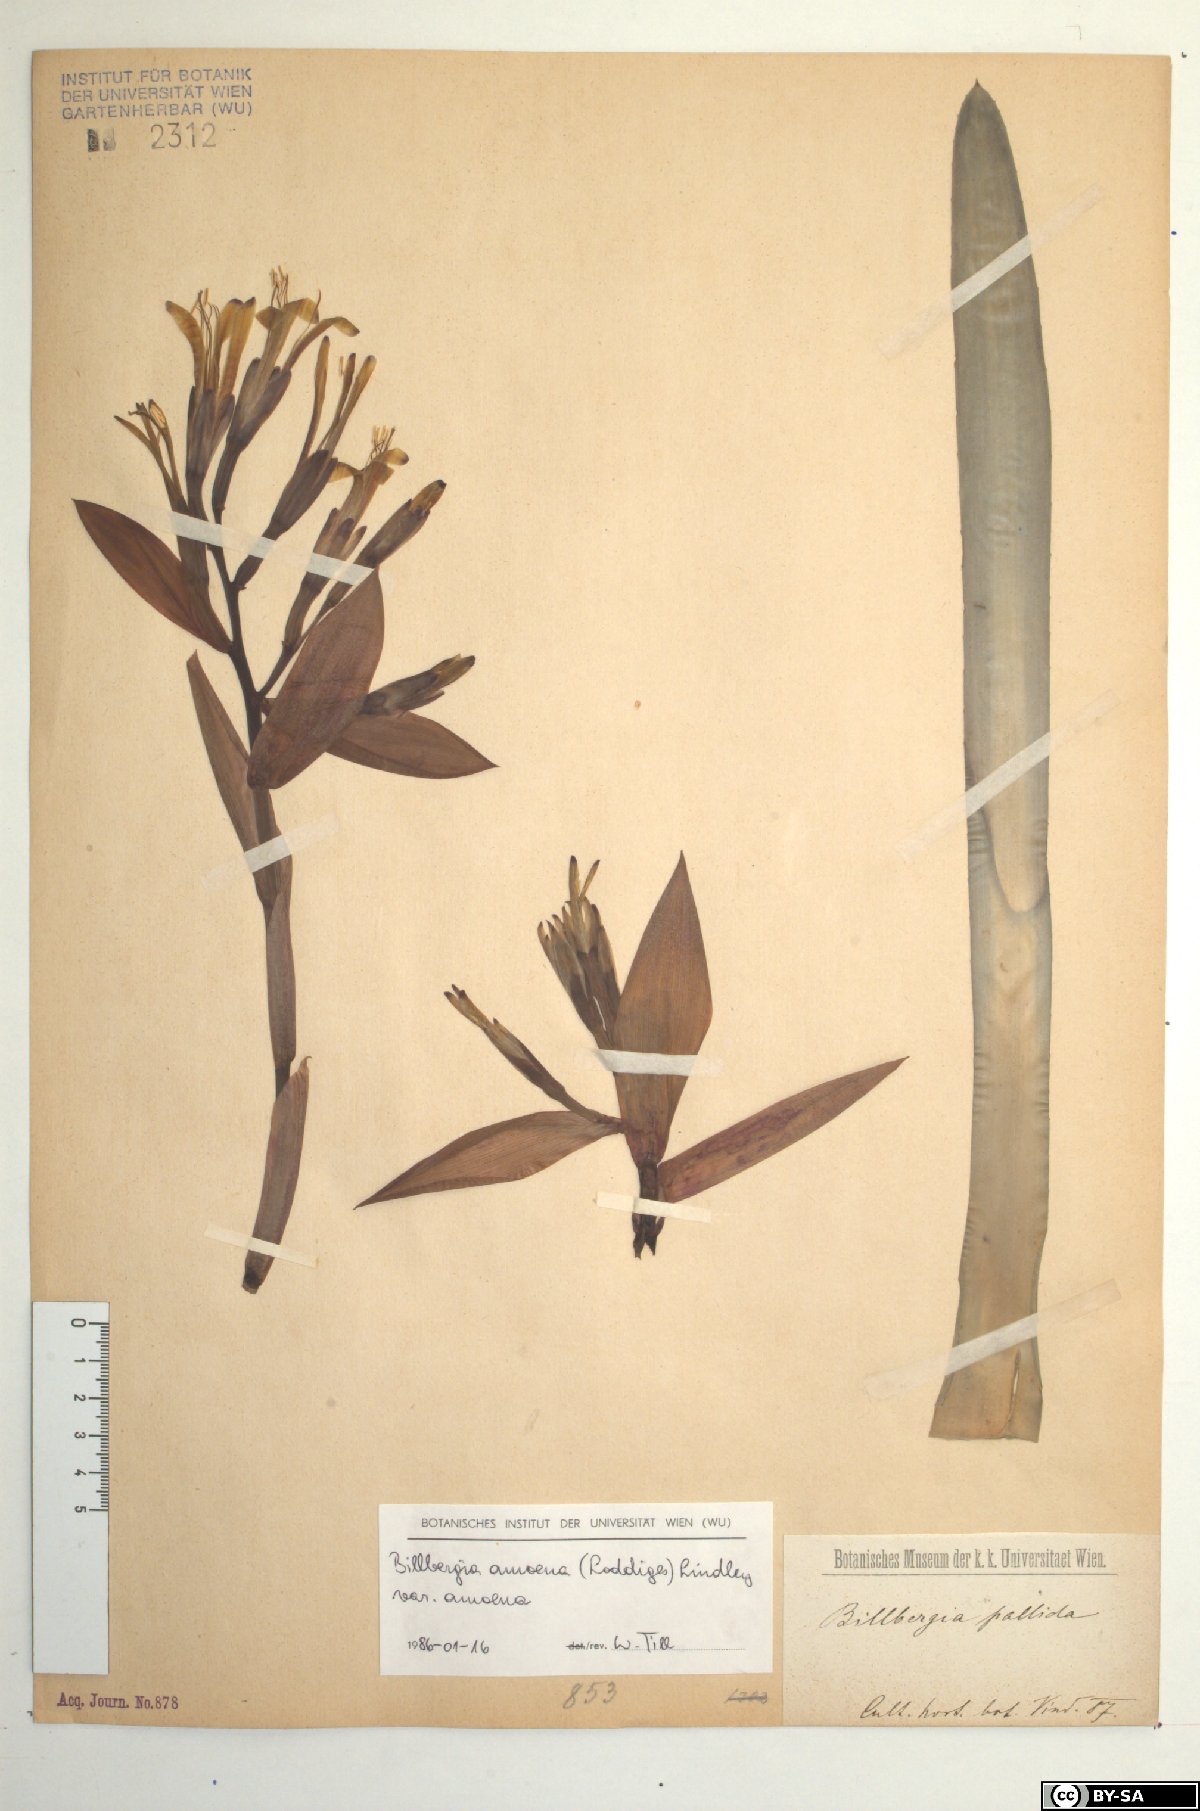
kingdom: Plantae
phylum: Tracheophyta
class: Liliopsida
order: Poales
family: Bromeliaceae
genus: Tillandsia
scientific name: Tillandsia tenuifolia
